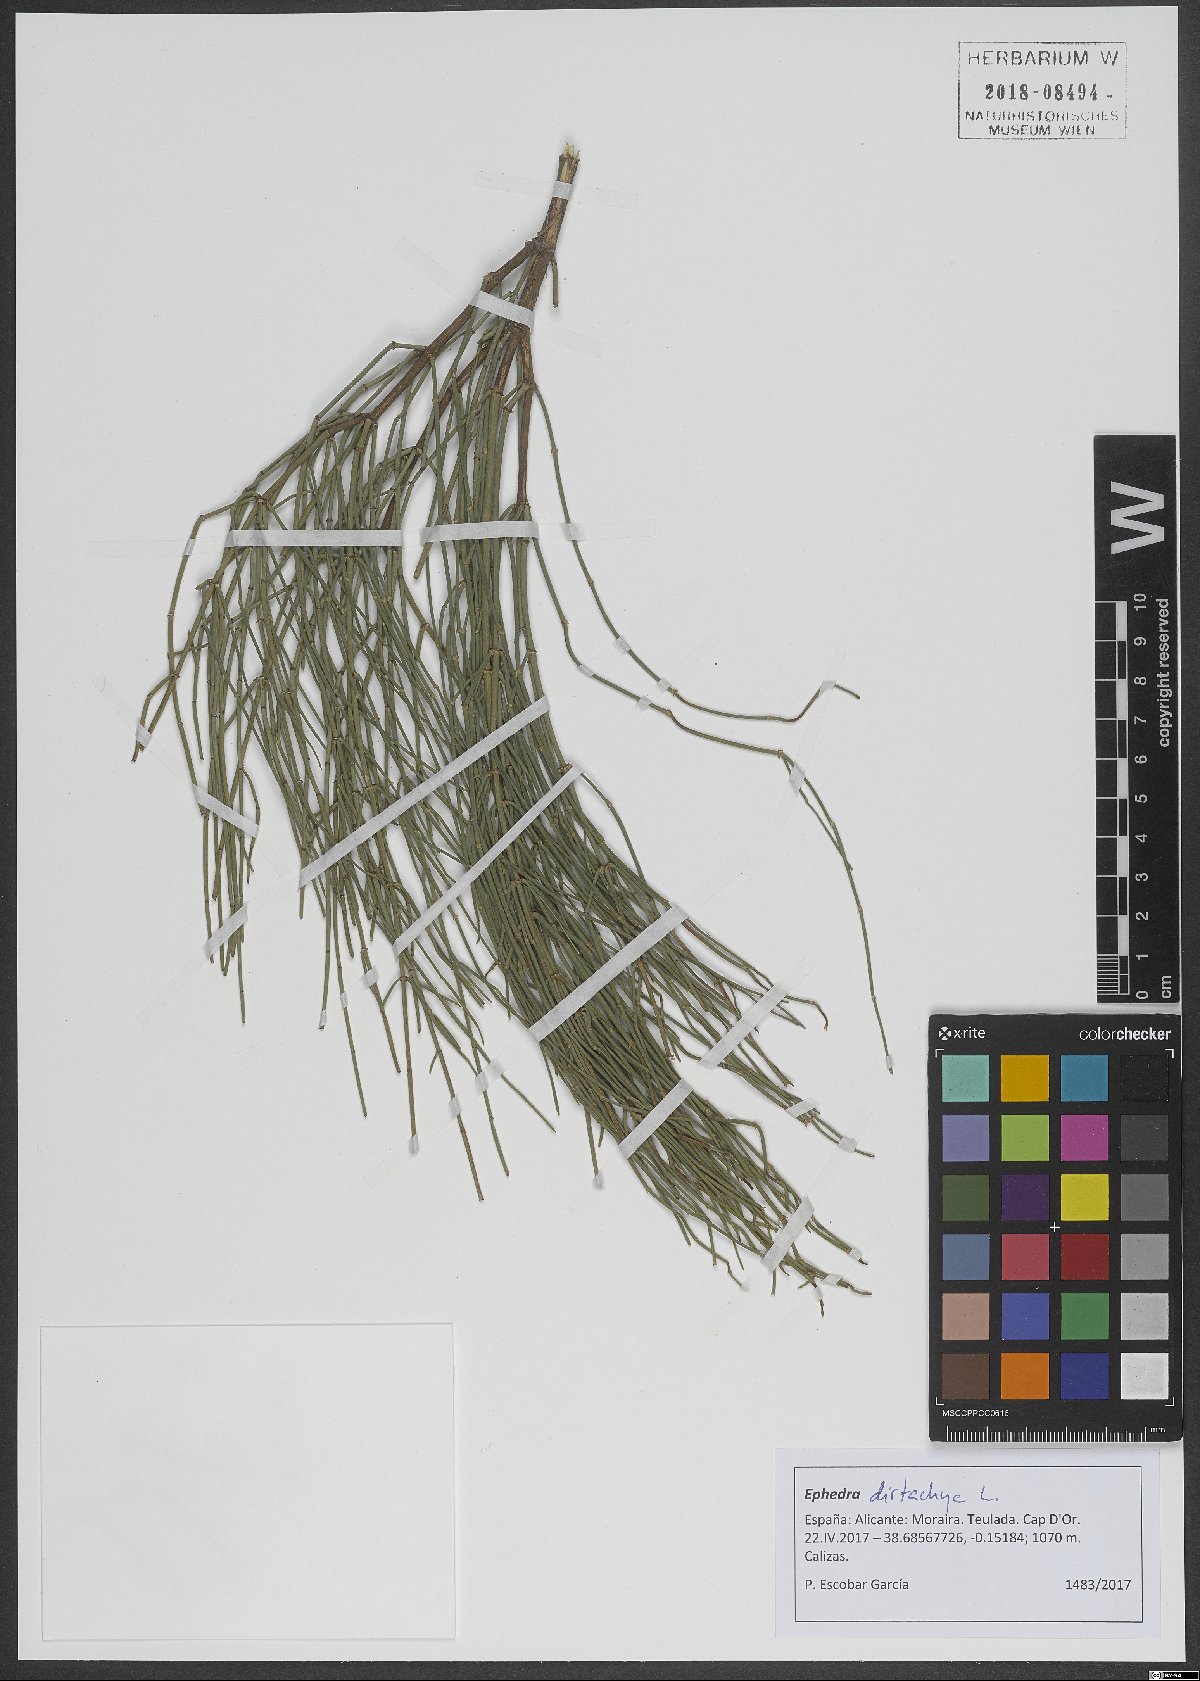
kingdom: Plantae
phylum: Tracheophyta
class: Gnetopsida
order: Ephedrales
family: Ephedraceae
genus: Ephedra
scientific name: Ephedra distachya
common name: Sea grape
